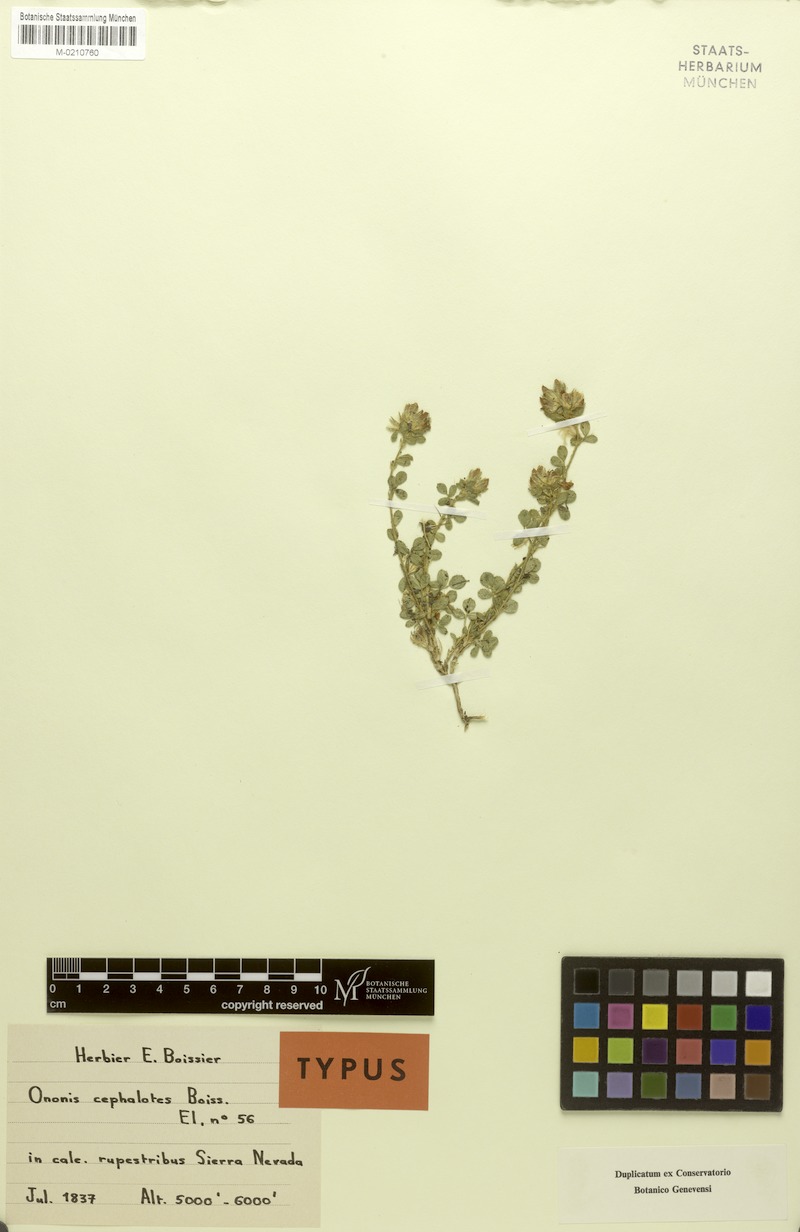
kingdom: Plantae
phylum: Tracheophyta
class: Magnoliopsida
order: Fabales
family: Fabaceae
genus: Ononis
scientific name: Ononis cephalotes
